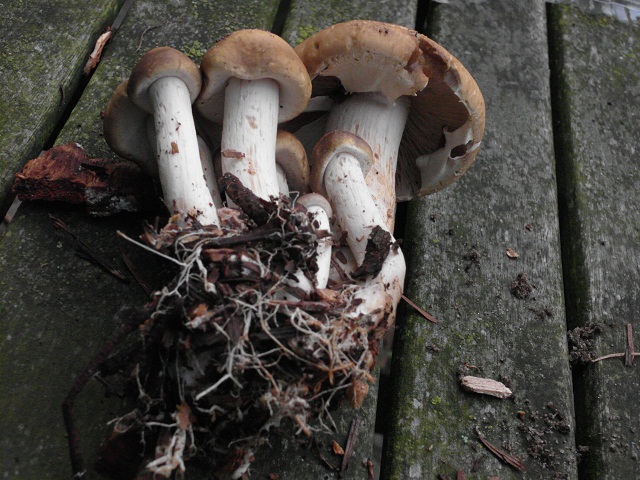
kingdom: Fungi
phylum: Basidiomycota
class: Agaricomycetes
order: Agaricales
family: Strophariaceae
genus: Agrocybe
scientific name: Agrocybe praecox
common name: tidlig agerhat
